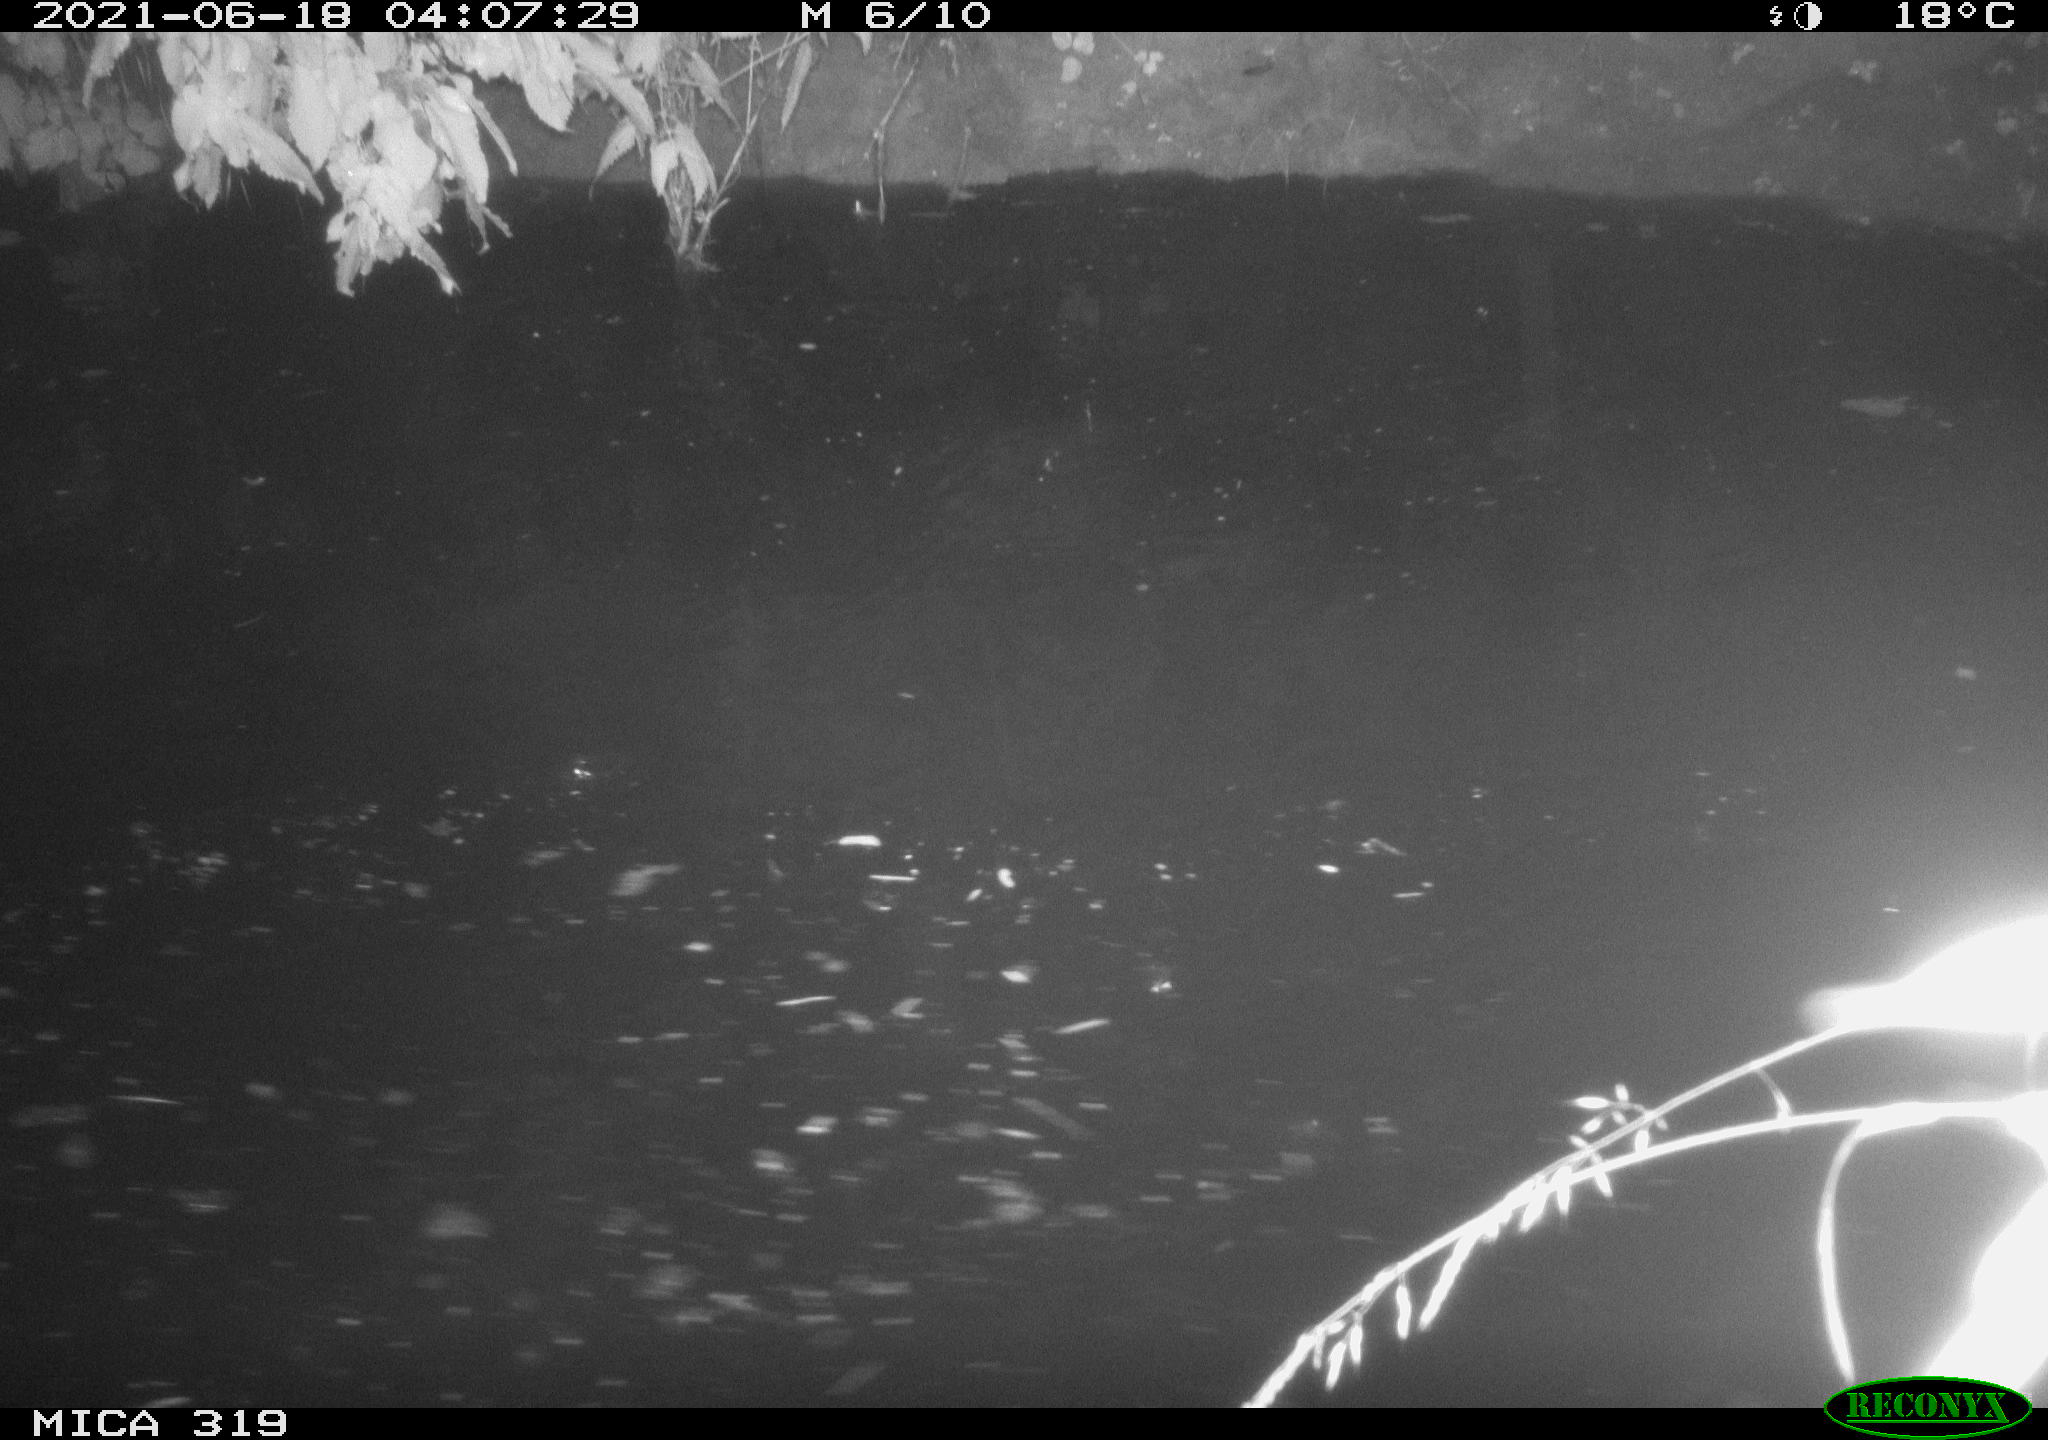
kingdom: Animalia
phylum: Chordata
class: Aves
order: Anseriformes
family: Anatidae
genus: Anas
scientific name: Anas platyrhynchos
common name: Mallard
